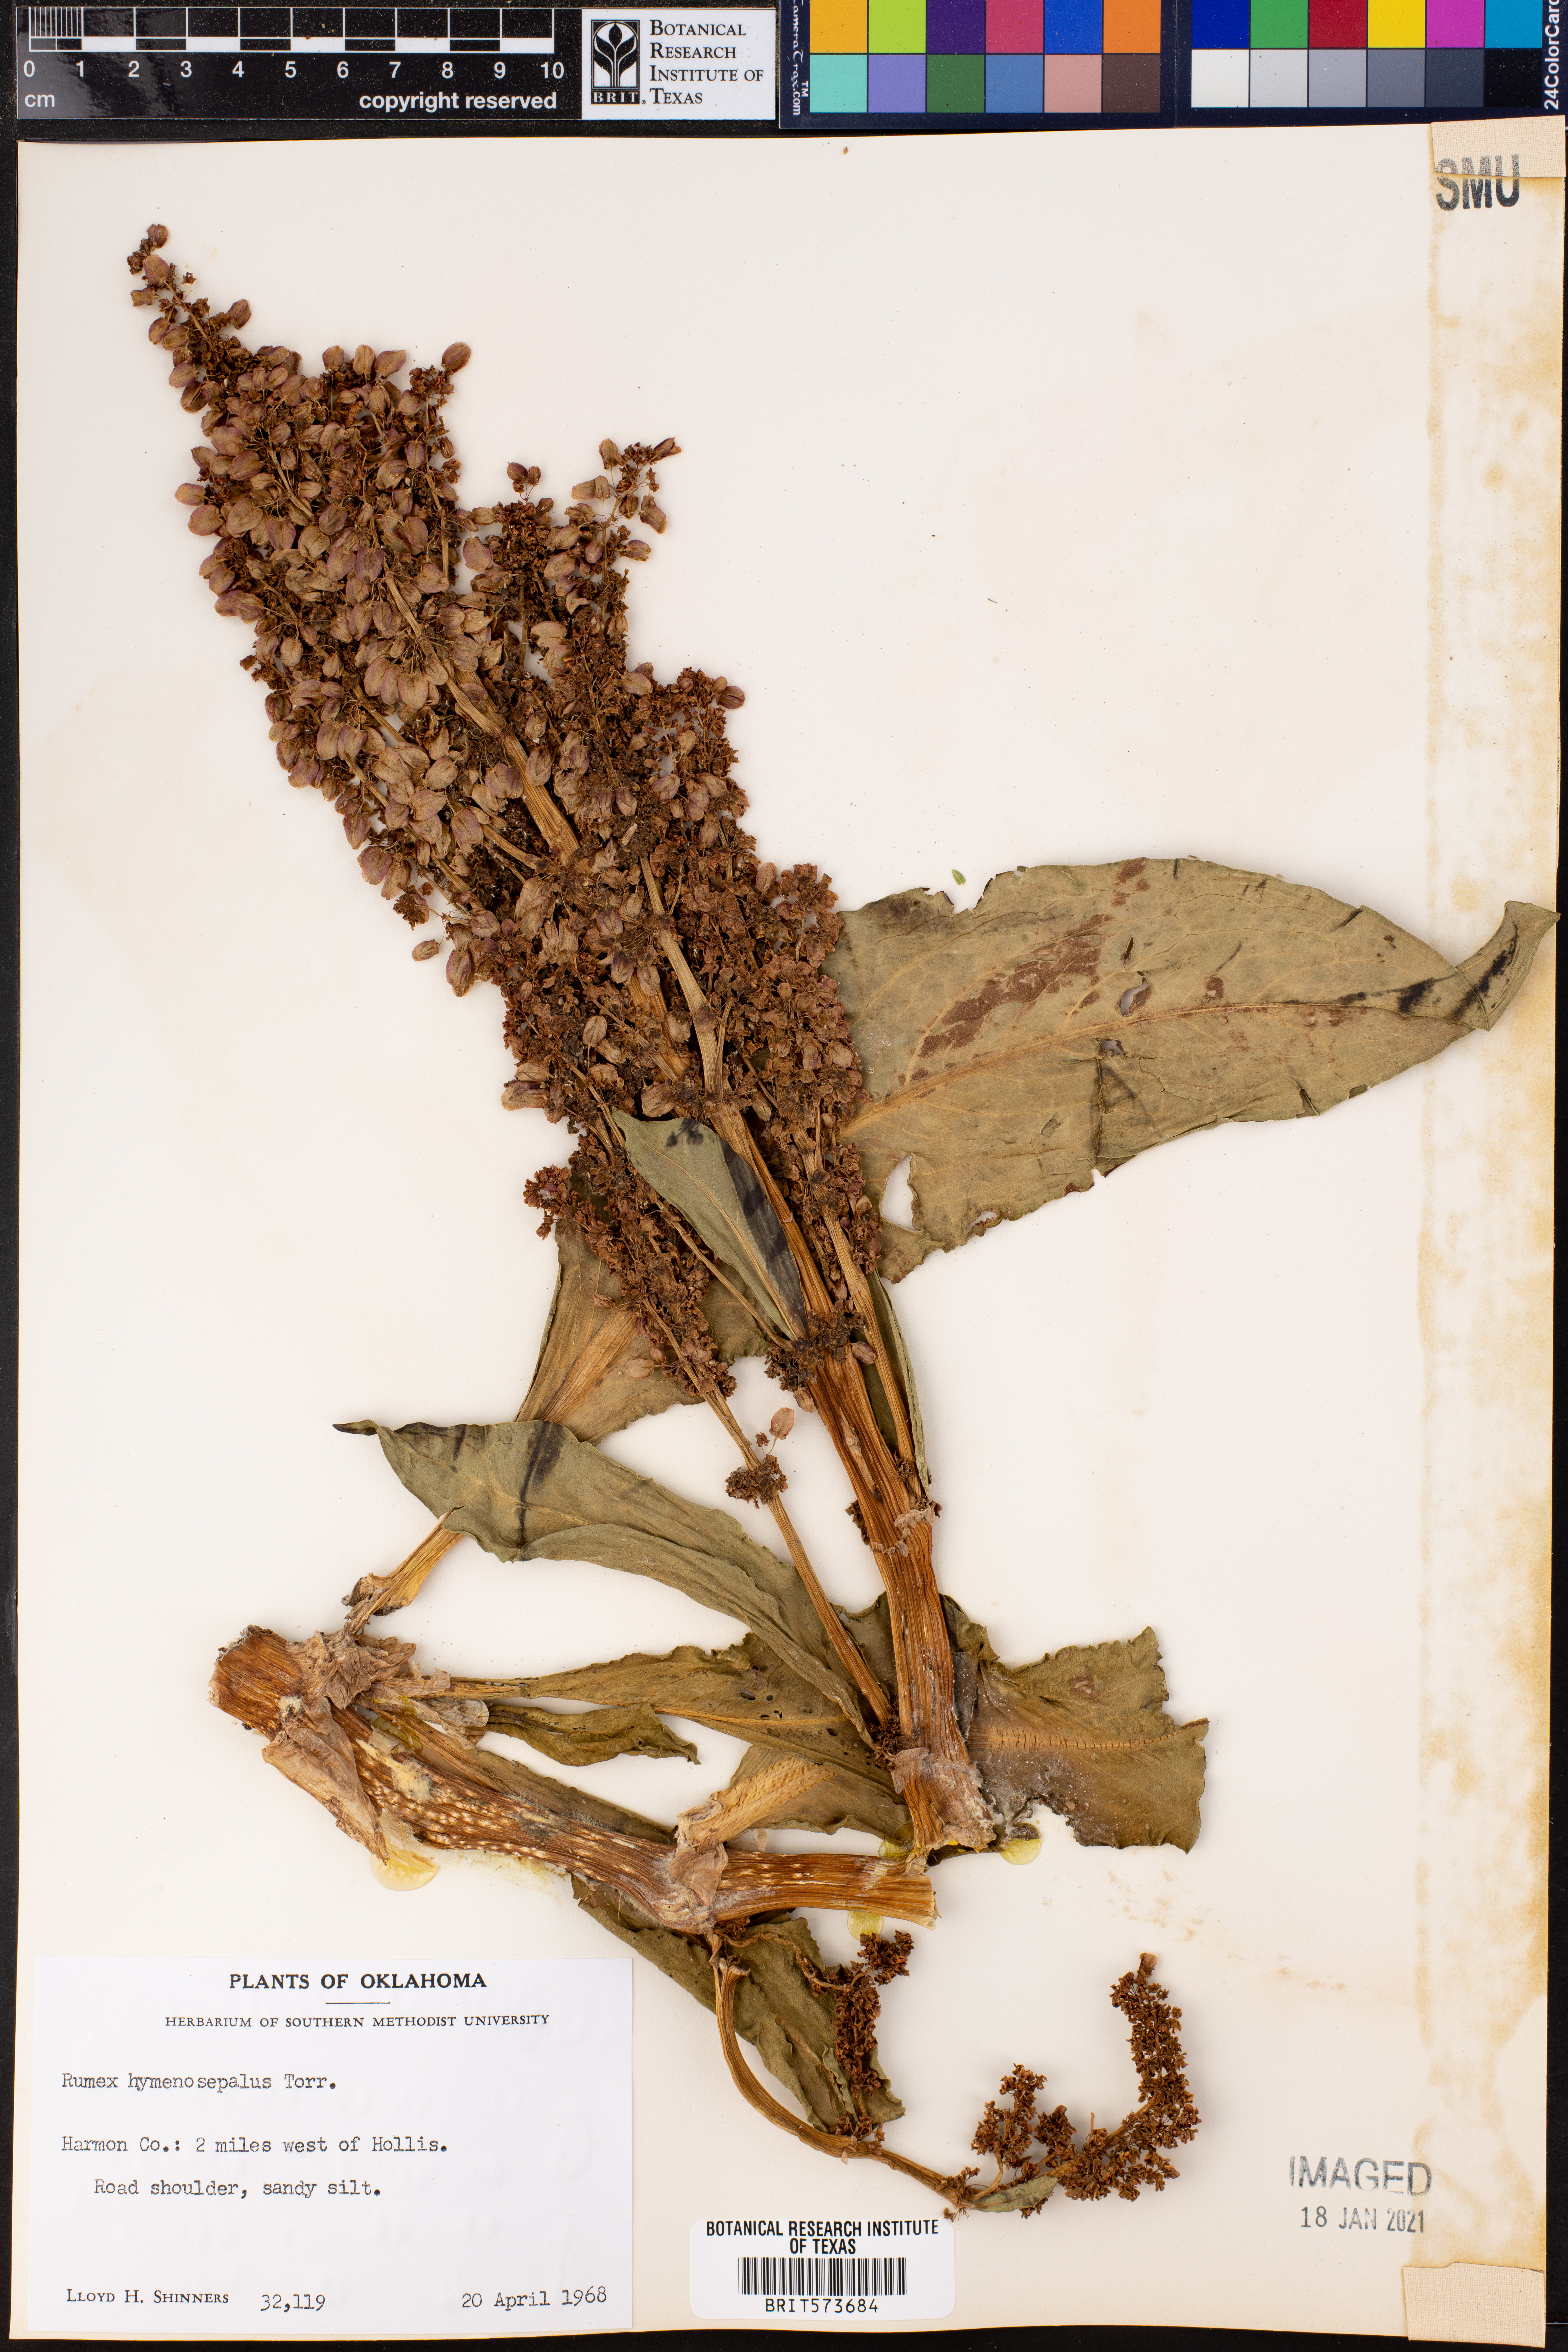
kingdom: Plantae
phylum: Tracheophyta
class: Magnoliopsida
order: Caryophyllales
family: Polygonaceae
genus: Rumex
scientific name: Rumex hymenosepalus
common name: Ganagra
